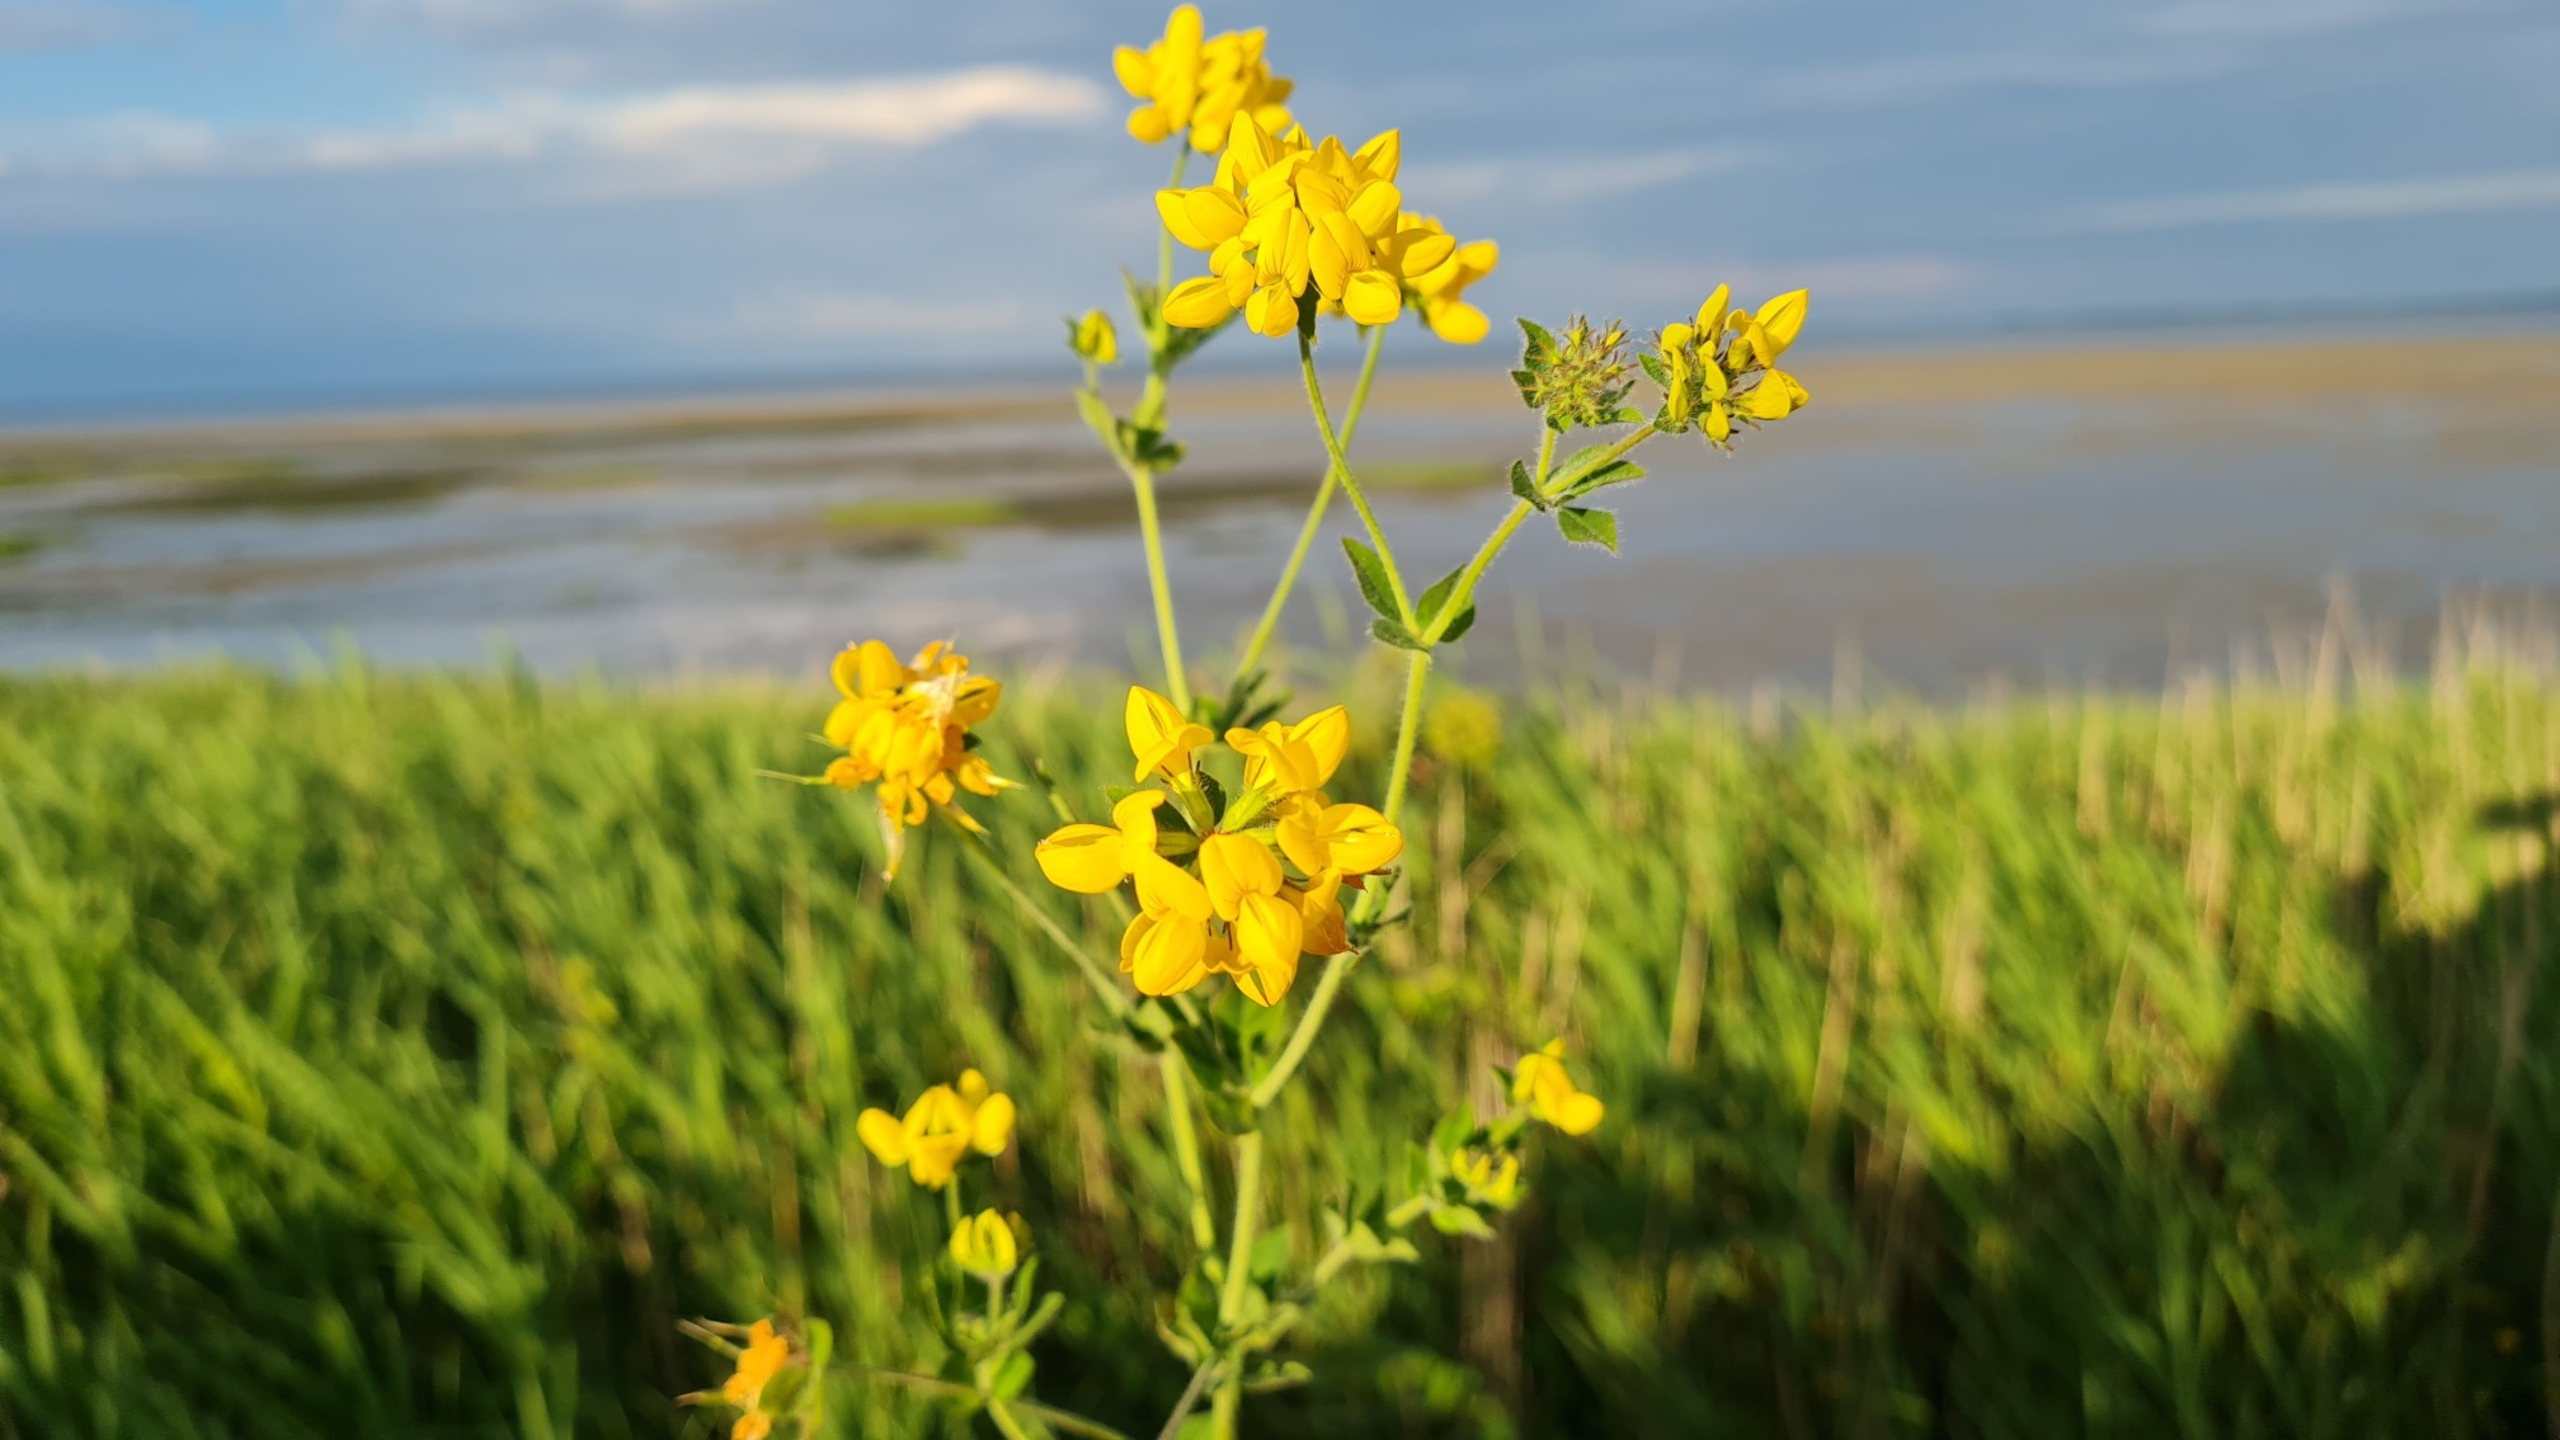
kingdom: Plantae
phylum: Tracheophyta
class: Magnoliopsida
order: Fabales
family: Fabaceae
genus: Lotus
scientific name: Lotus pedunculatus
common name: Sump-kællingetand
